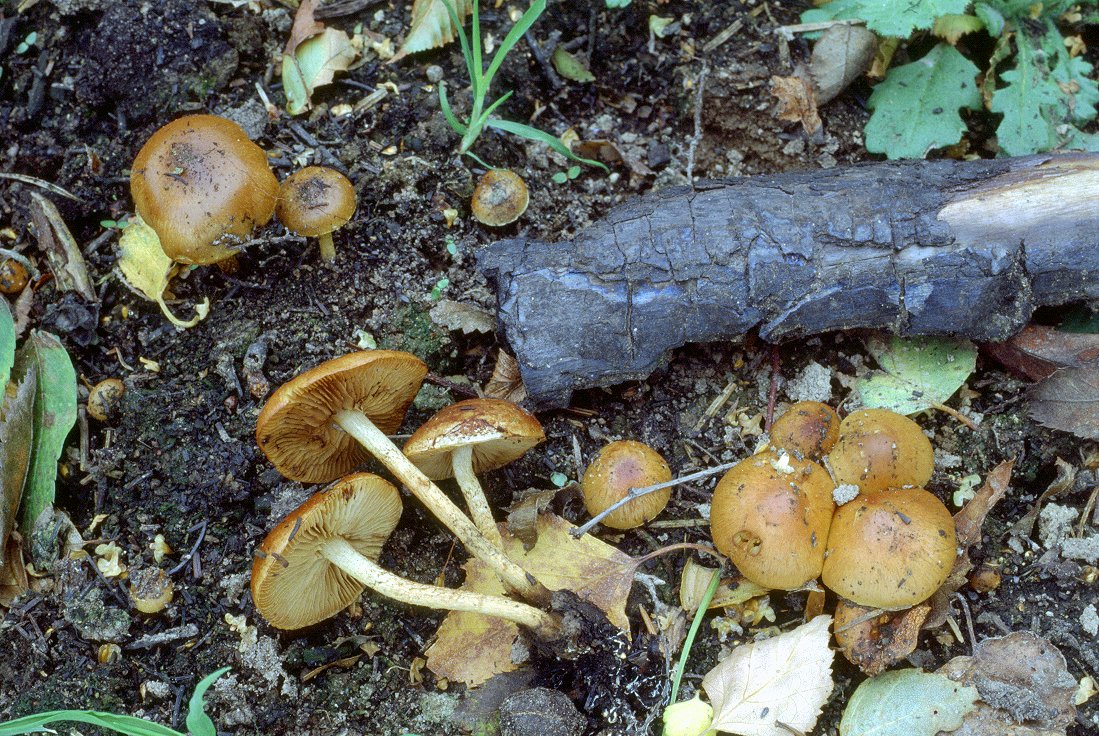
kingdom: Fungi
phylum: Basidiomycota
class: Agaricomycetes
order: Agaricales
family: Strophariaceae
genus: Pholiota
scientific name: Pholiota carbonaria
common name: kul-skælhat
